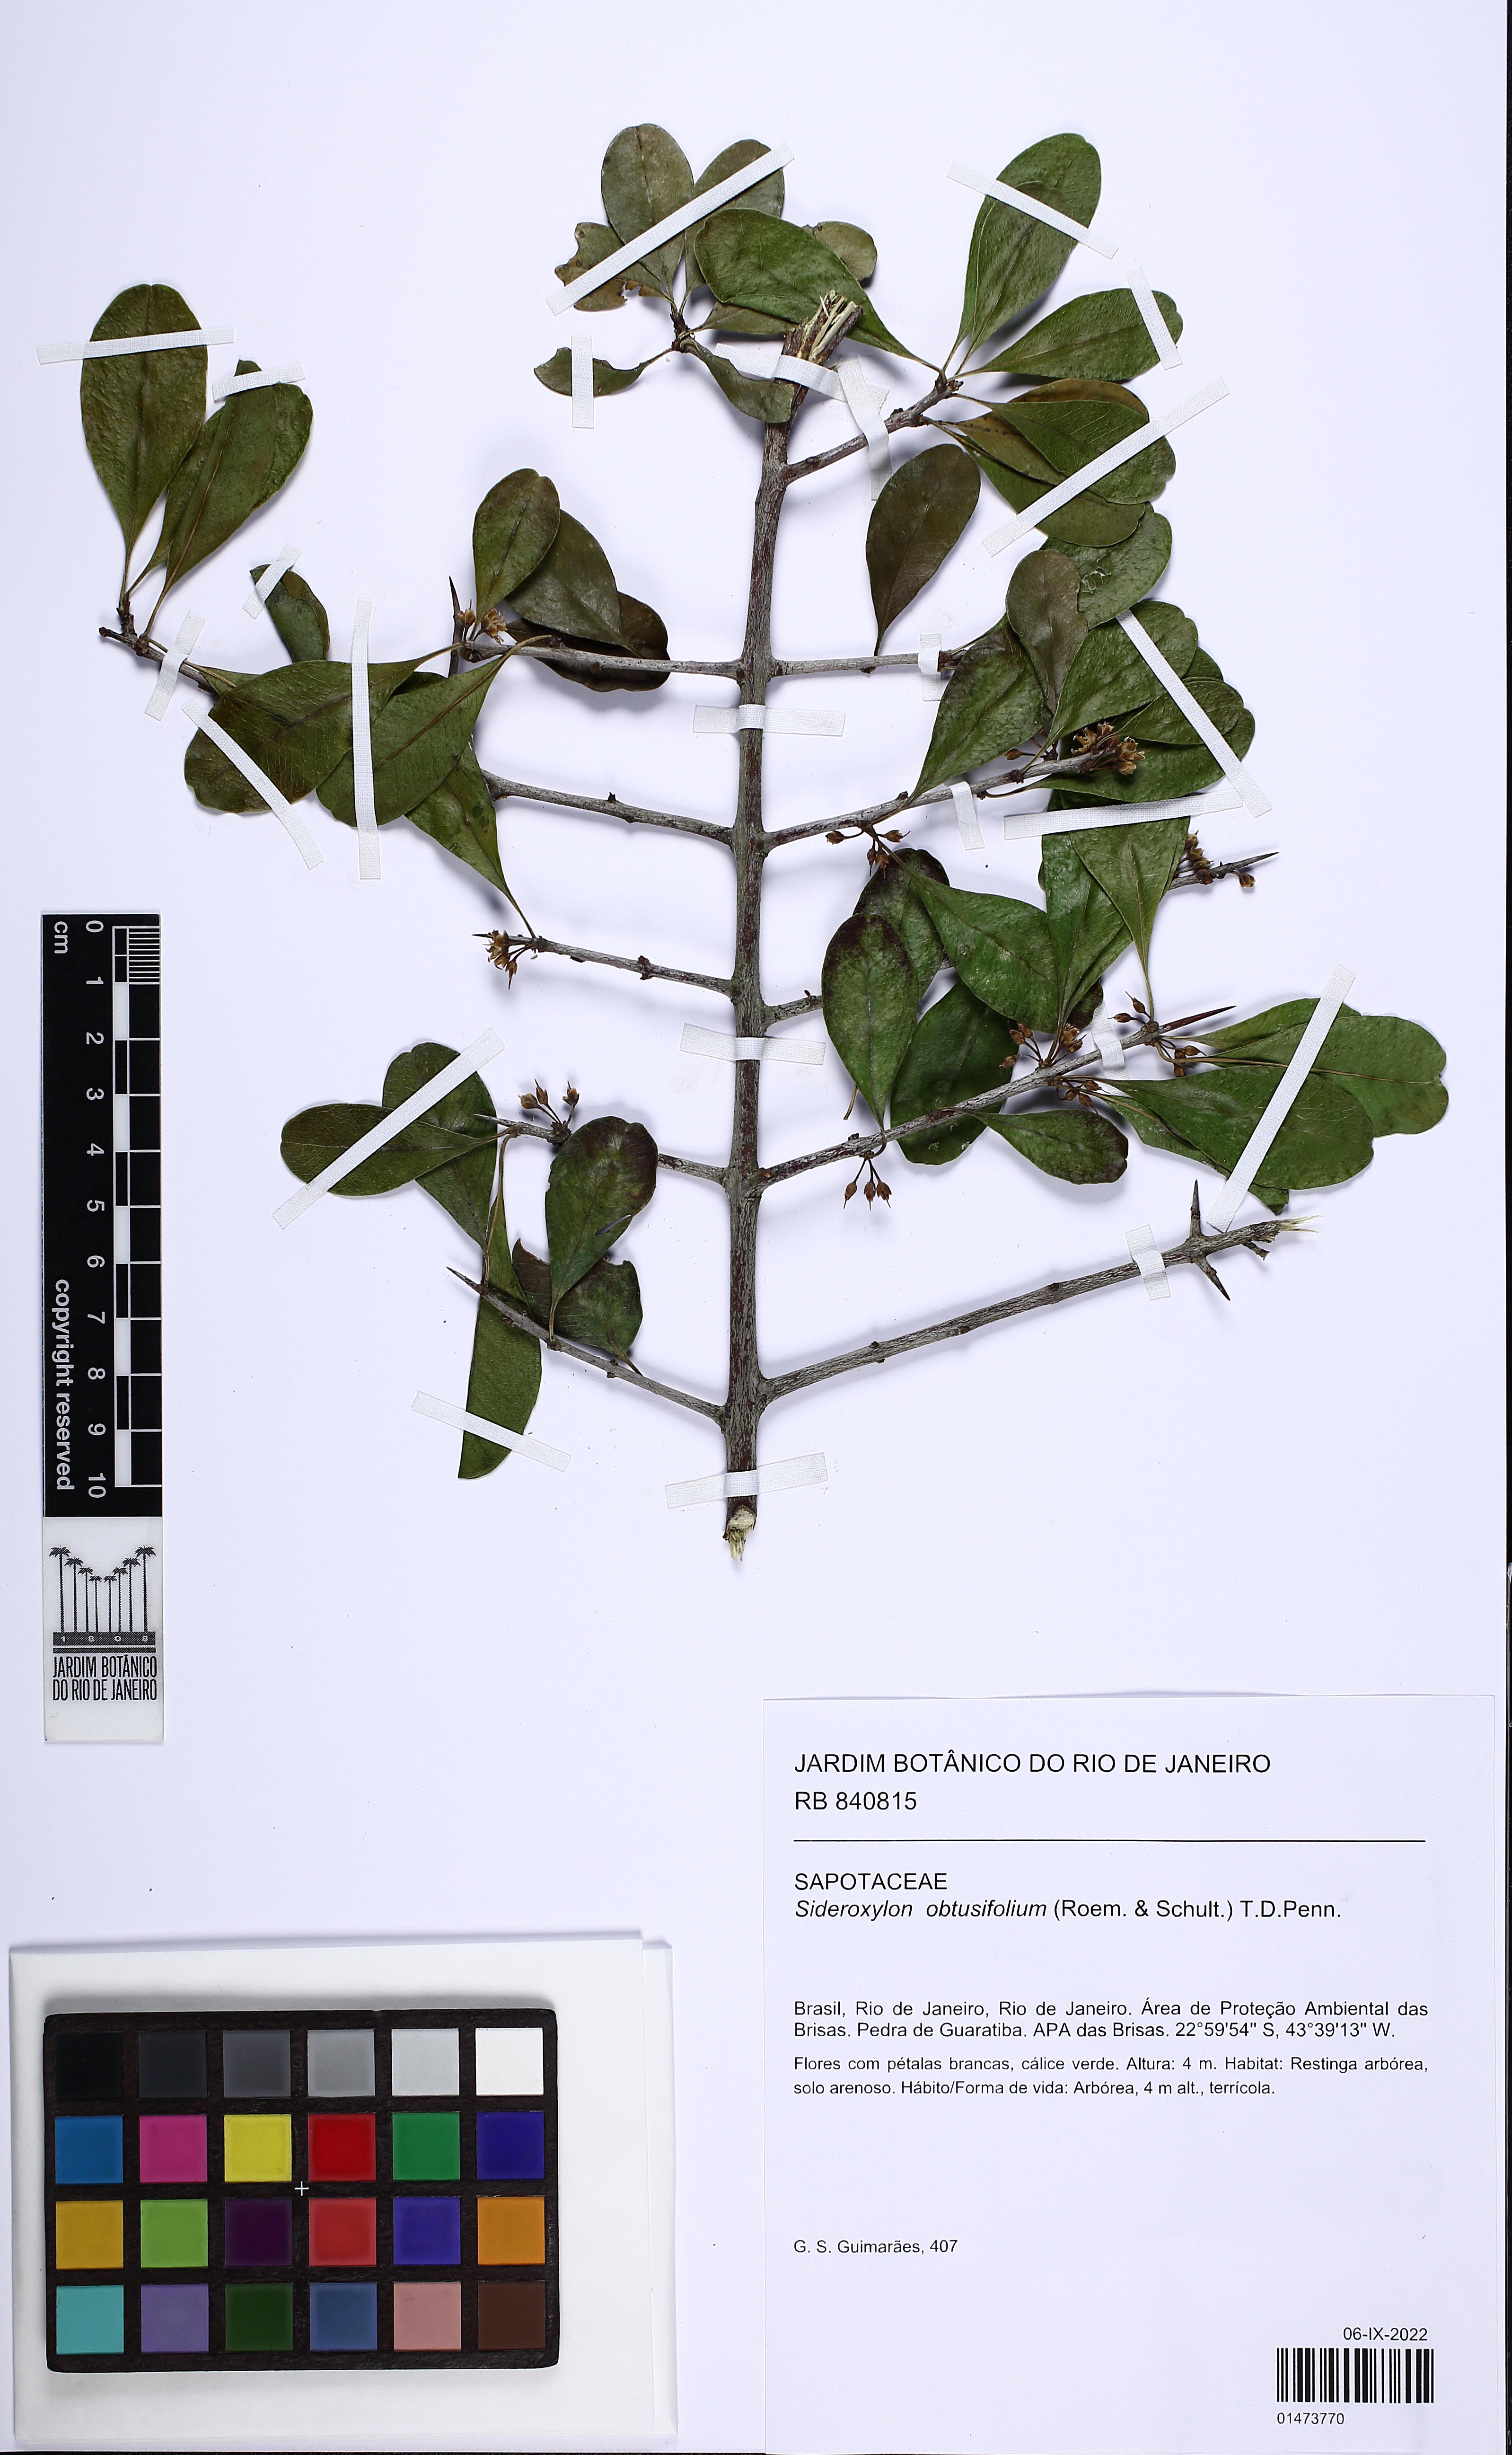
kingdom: Plantae
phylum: Tracheophyta
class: Magnoliopsida
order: Ericales
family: Sapotaceae
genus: Sideroxylon
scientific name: Sideroxylon obtusifolium
